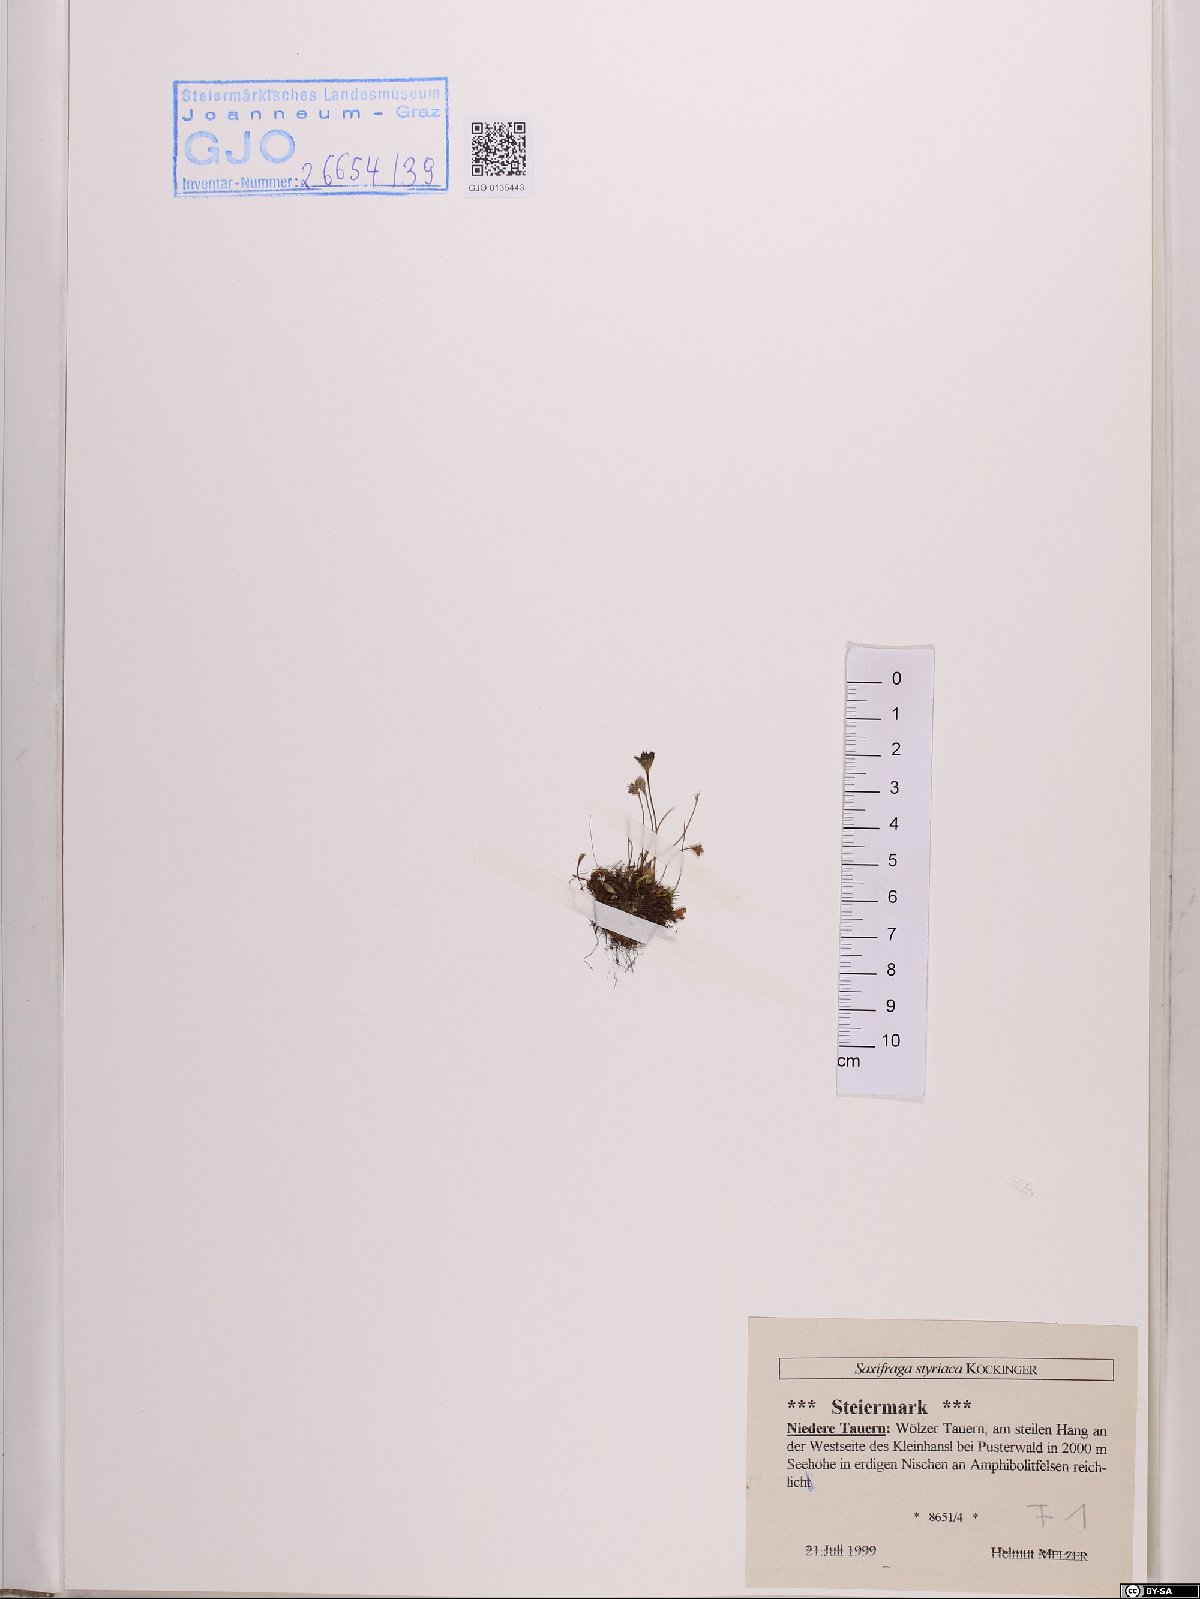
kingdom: Plantae
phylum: Tracheophyta
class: Magnoliopsida
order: Saxifragales
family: Saxifragaceae
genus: Saxifraga
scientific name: Saxifraga styriaca
